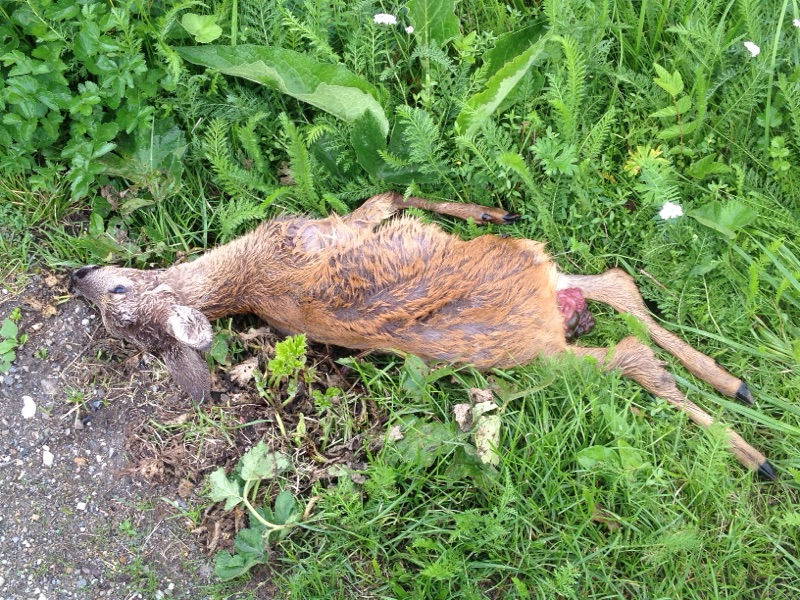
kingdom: Animalia
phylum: Chordata
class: Mammalia
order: Artiodactyla
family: Cervidae
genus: Capreolus
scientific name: Capreolus capreolus
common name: Western roe deer
